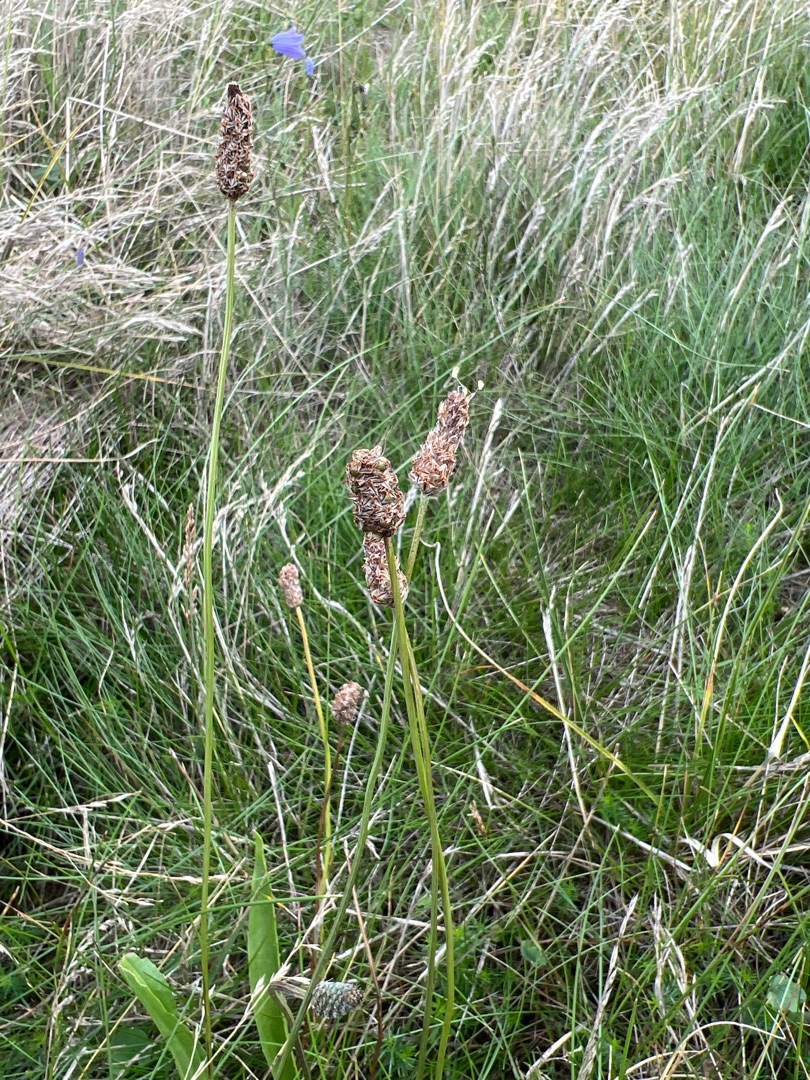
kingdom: Plantae
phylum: Tracheophyta
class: Magnoliopsida
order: Lamiales
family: Plantaginaceae
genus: Plantago
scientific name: Plantago lanceolata
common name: Lancet-vejbred
